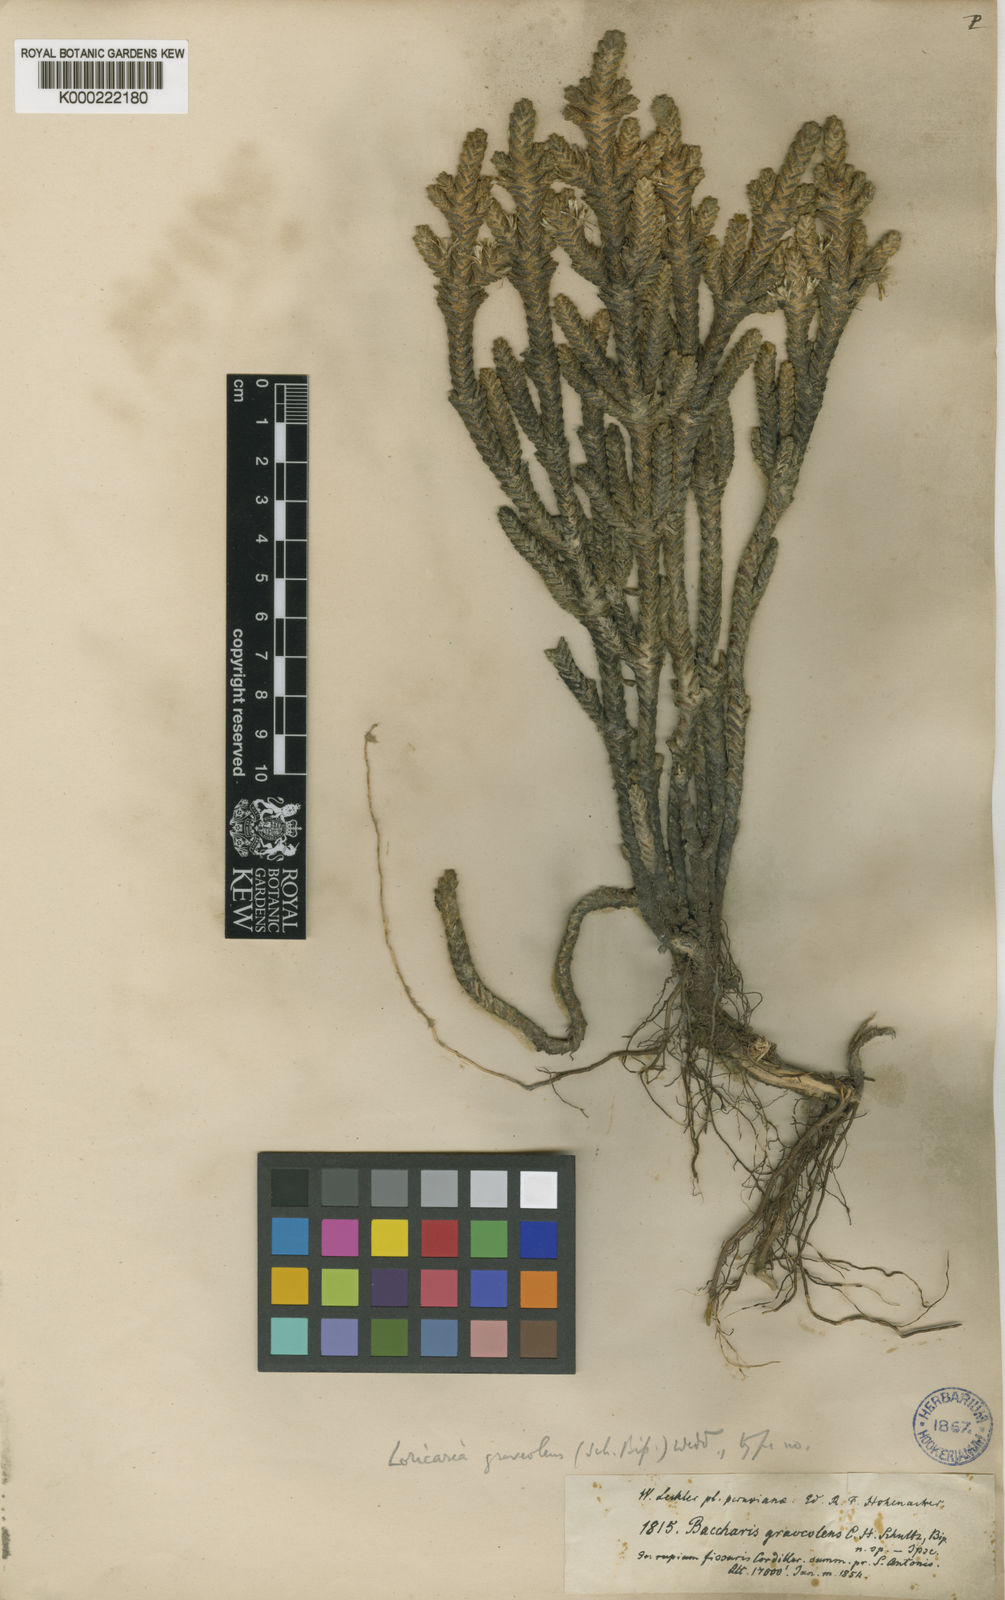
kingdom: Plantae
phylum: Tracheophyta
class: Magnoliopsida
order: Asterales
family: Asteraceae
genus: Andicolea
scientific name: Andicolea graveolens
